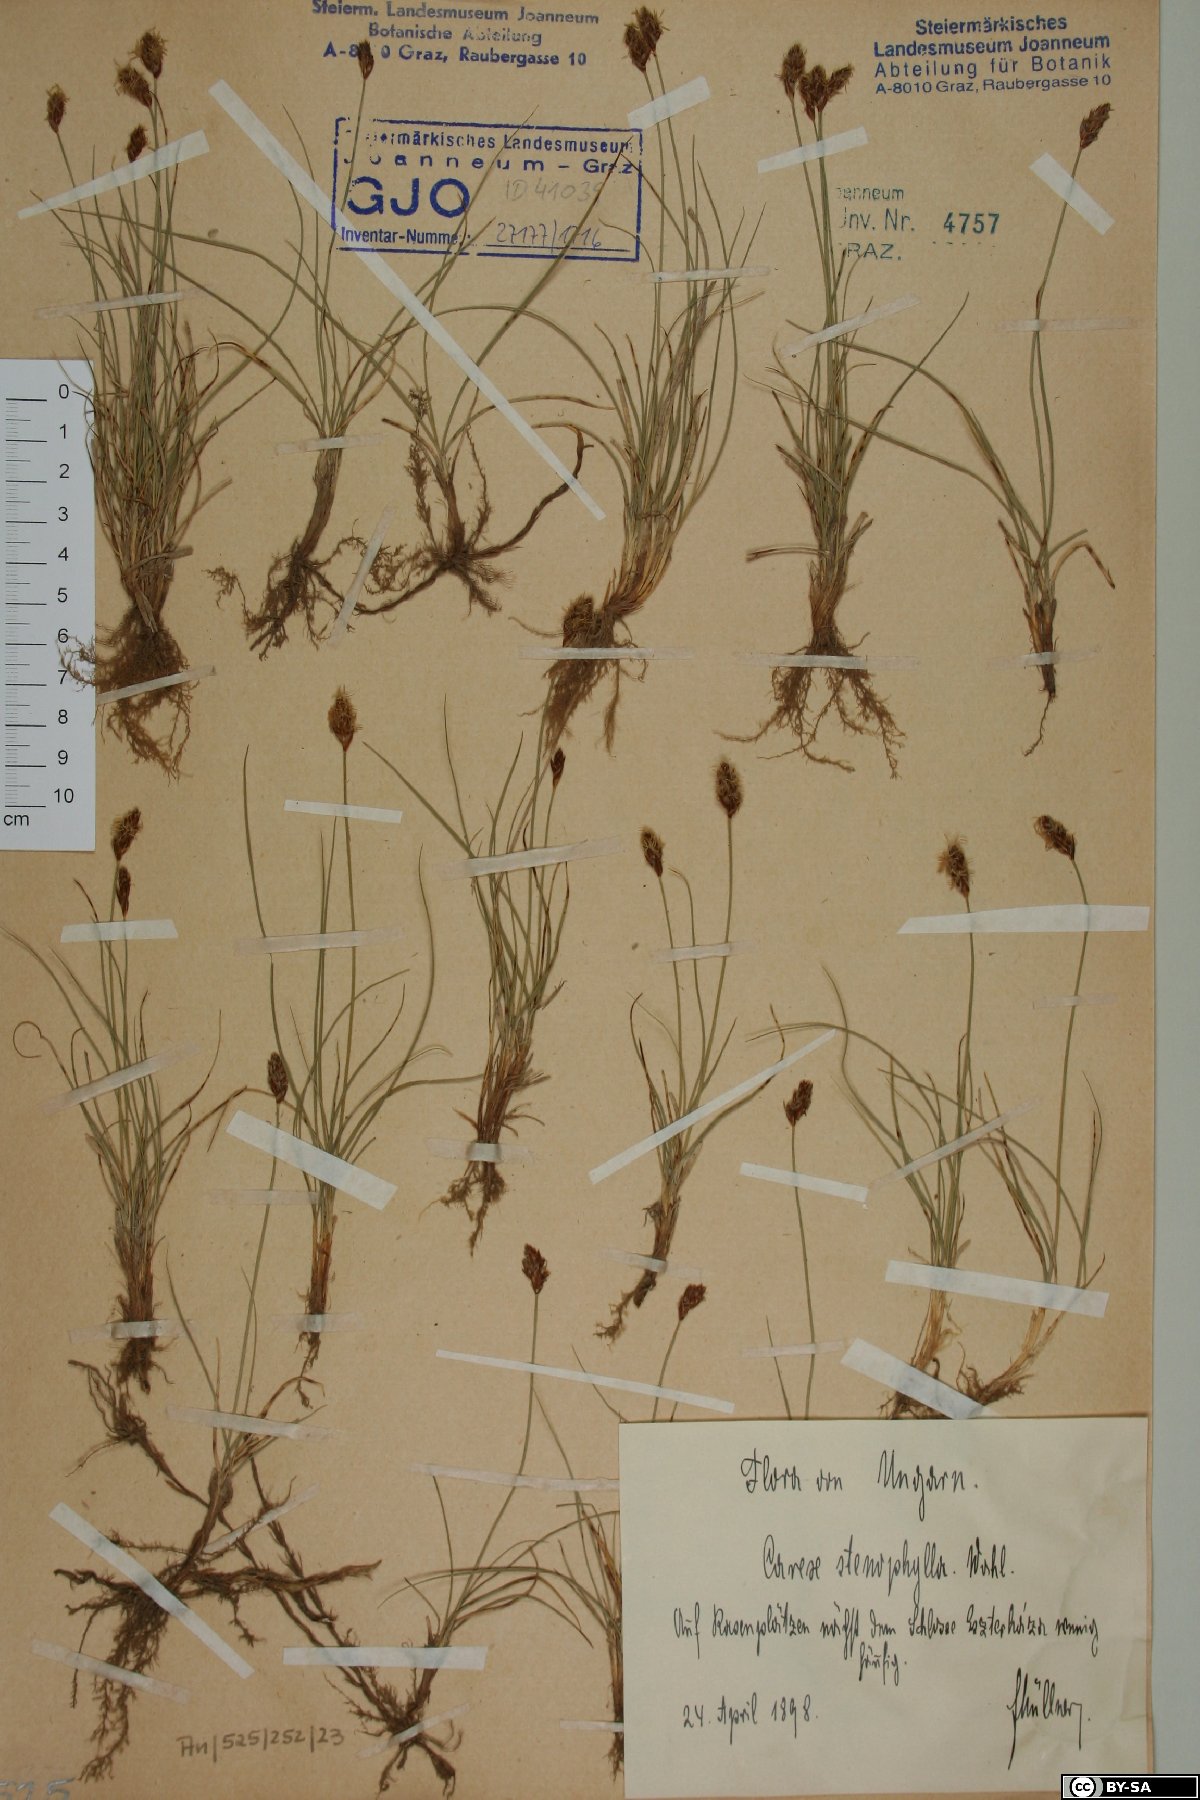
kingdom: Plantae
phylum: Tracheophyta
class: Liliopsida
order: Poales
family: Cyperaceae
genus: Carex
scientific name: Carex stenophylla
